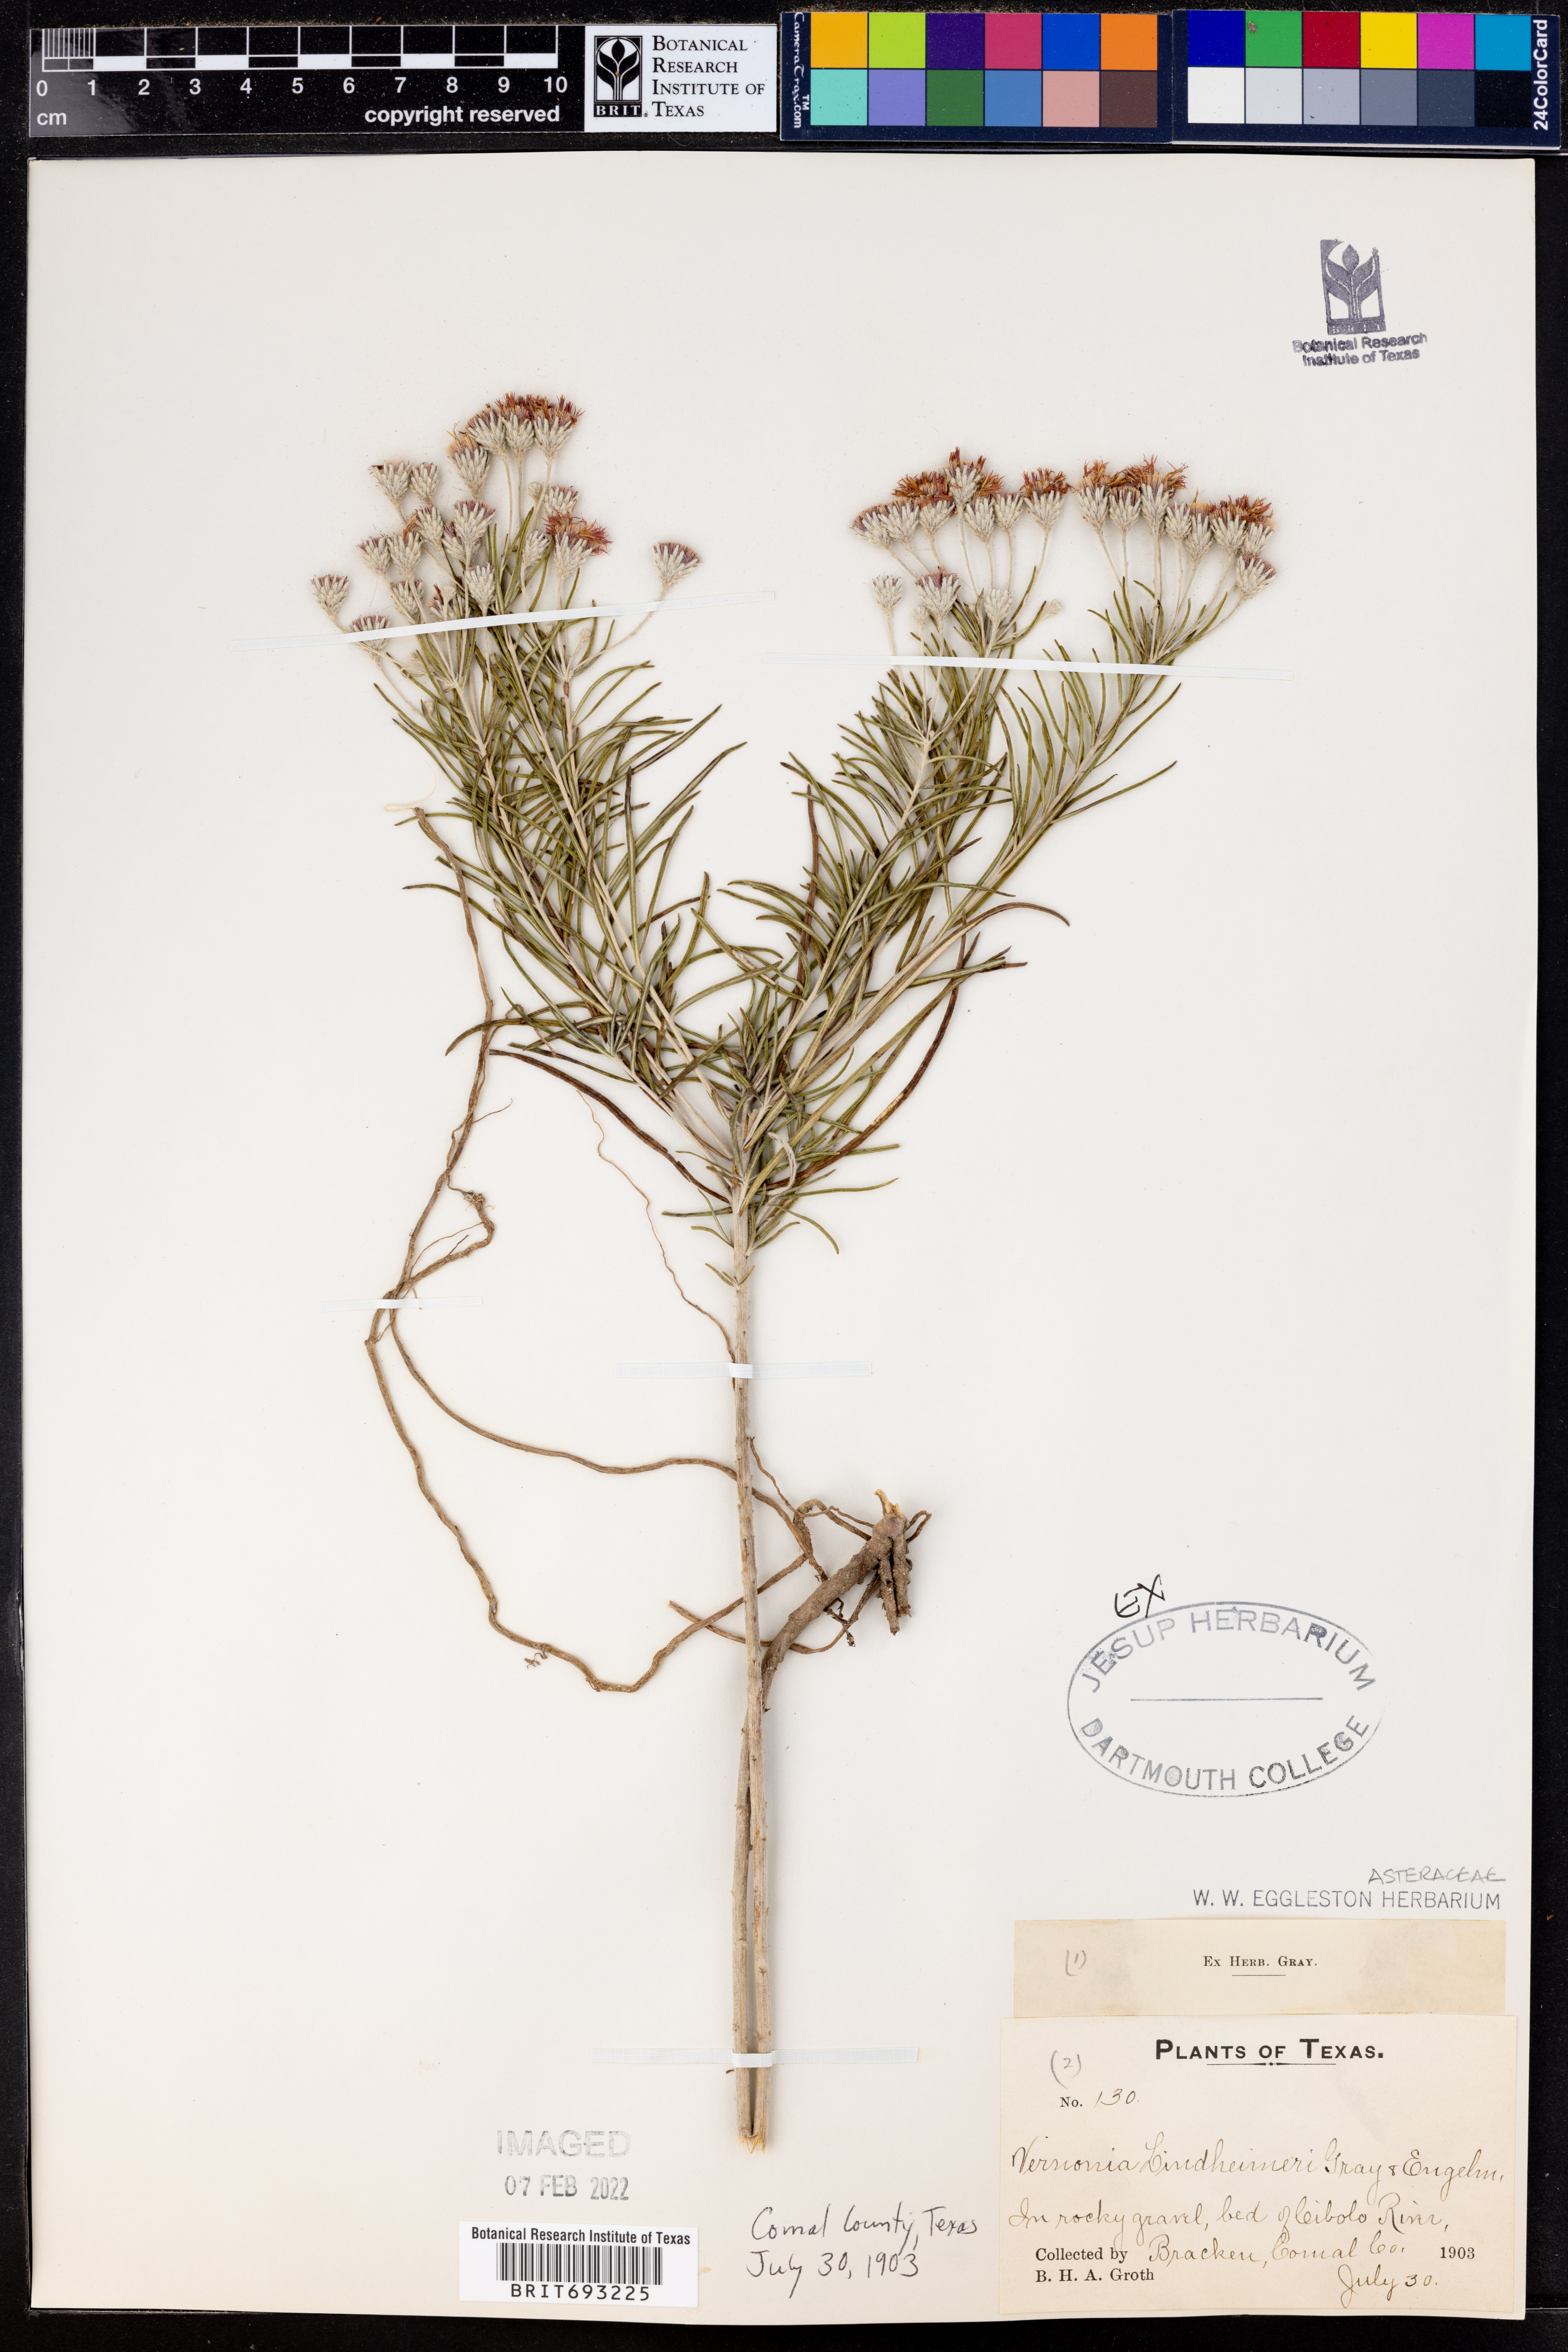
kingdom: Plantae
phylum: Tracheophyta
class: Magnoliopsida
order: Asterales
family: Asteraceae
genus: Vernonia
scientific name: Vernonia lindheimeri
